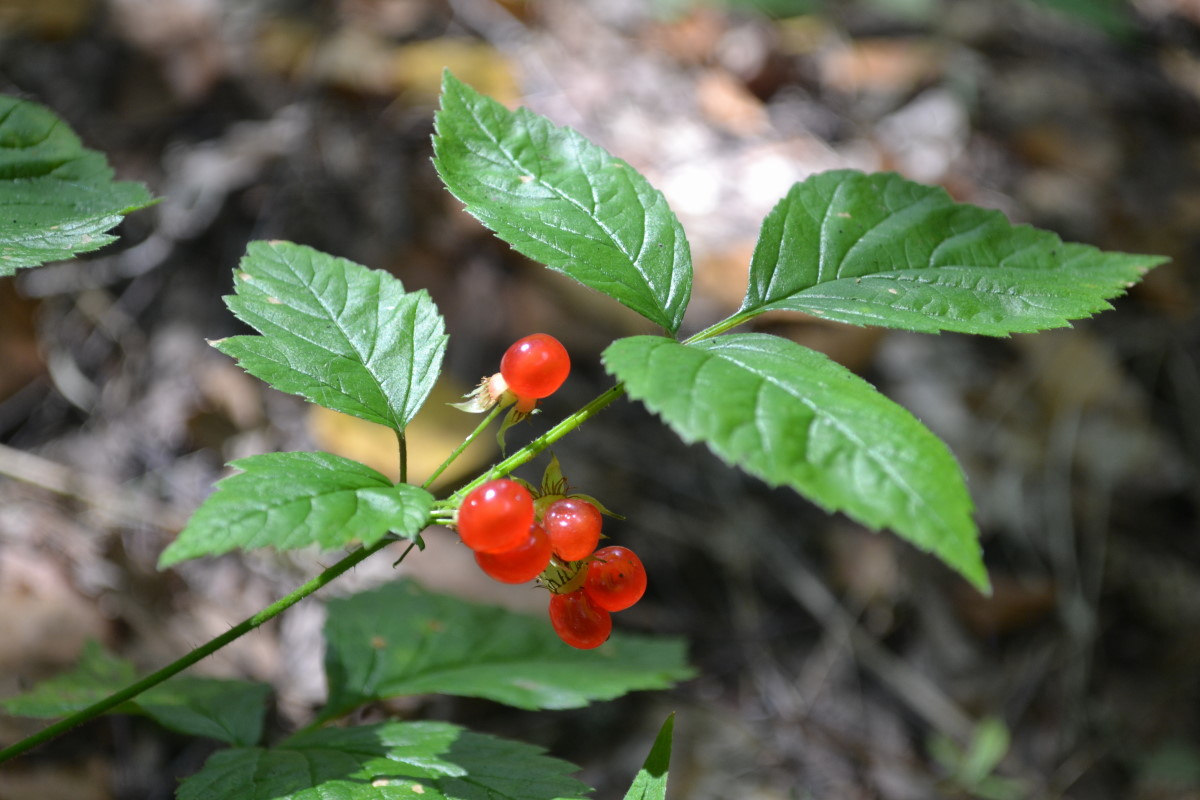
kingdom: Plantae
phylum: Tracheophyta
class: Magnoliopsida
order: Rosales
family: Rosaceae
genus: Rubus
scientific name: Rubus saxatilis
